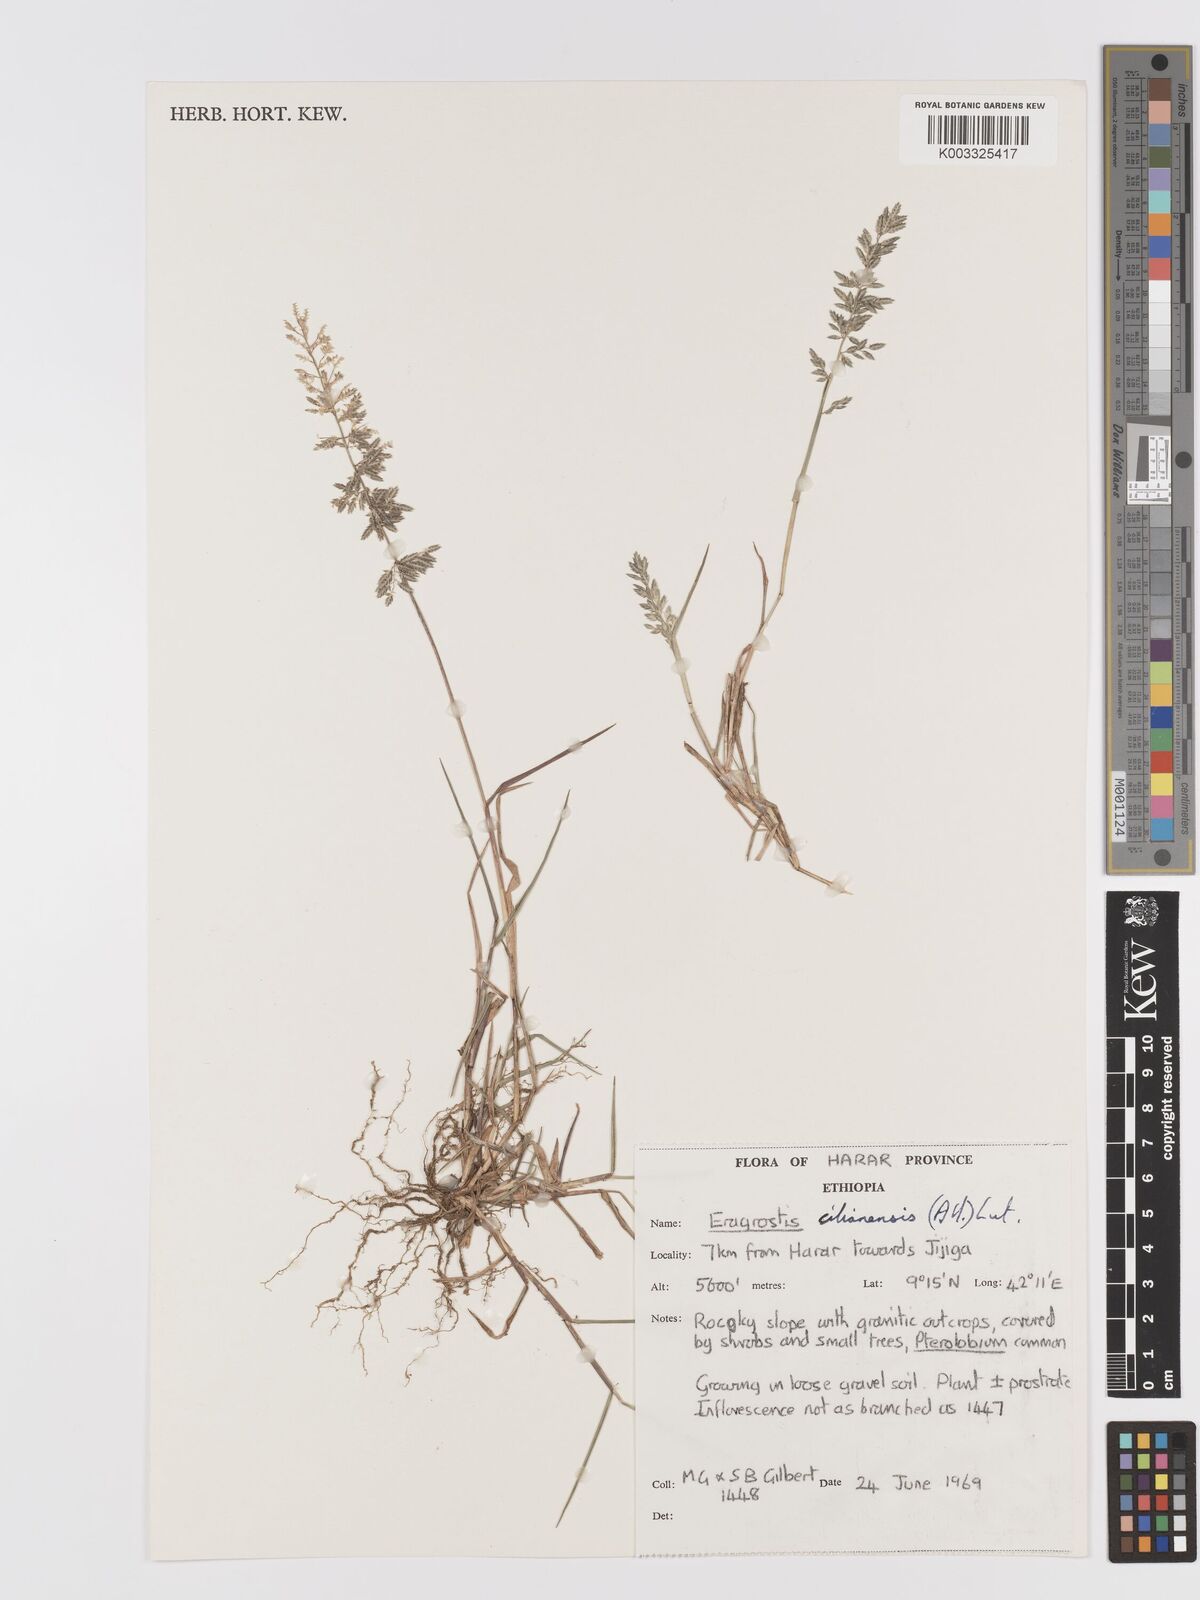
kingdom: Plantae
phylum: Tracheophyta
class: Liliopsida
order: Poales
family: Poaceae
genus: Eragrostis
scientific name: Eragrostis cilianensis
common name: Stinkgrass
